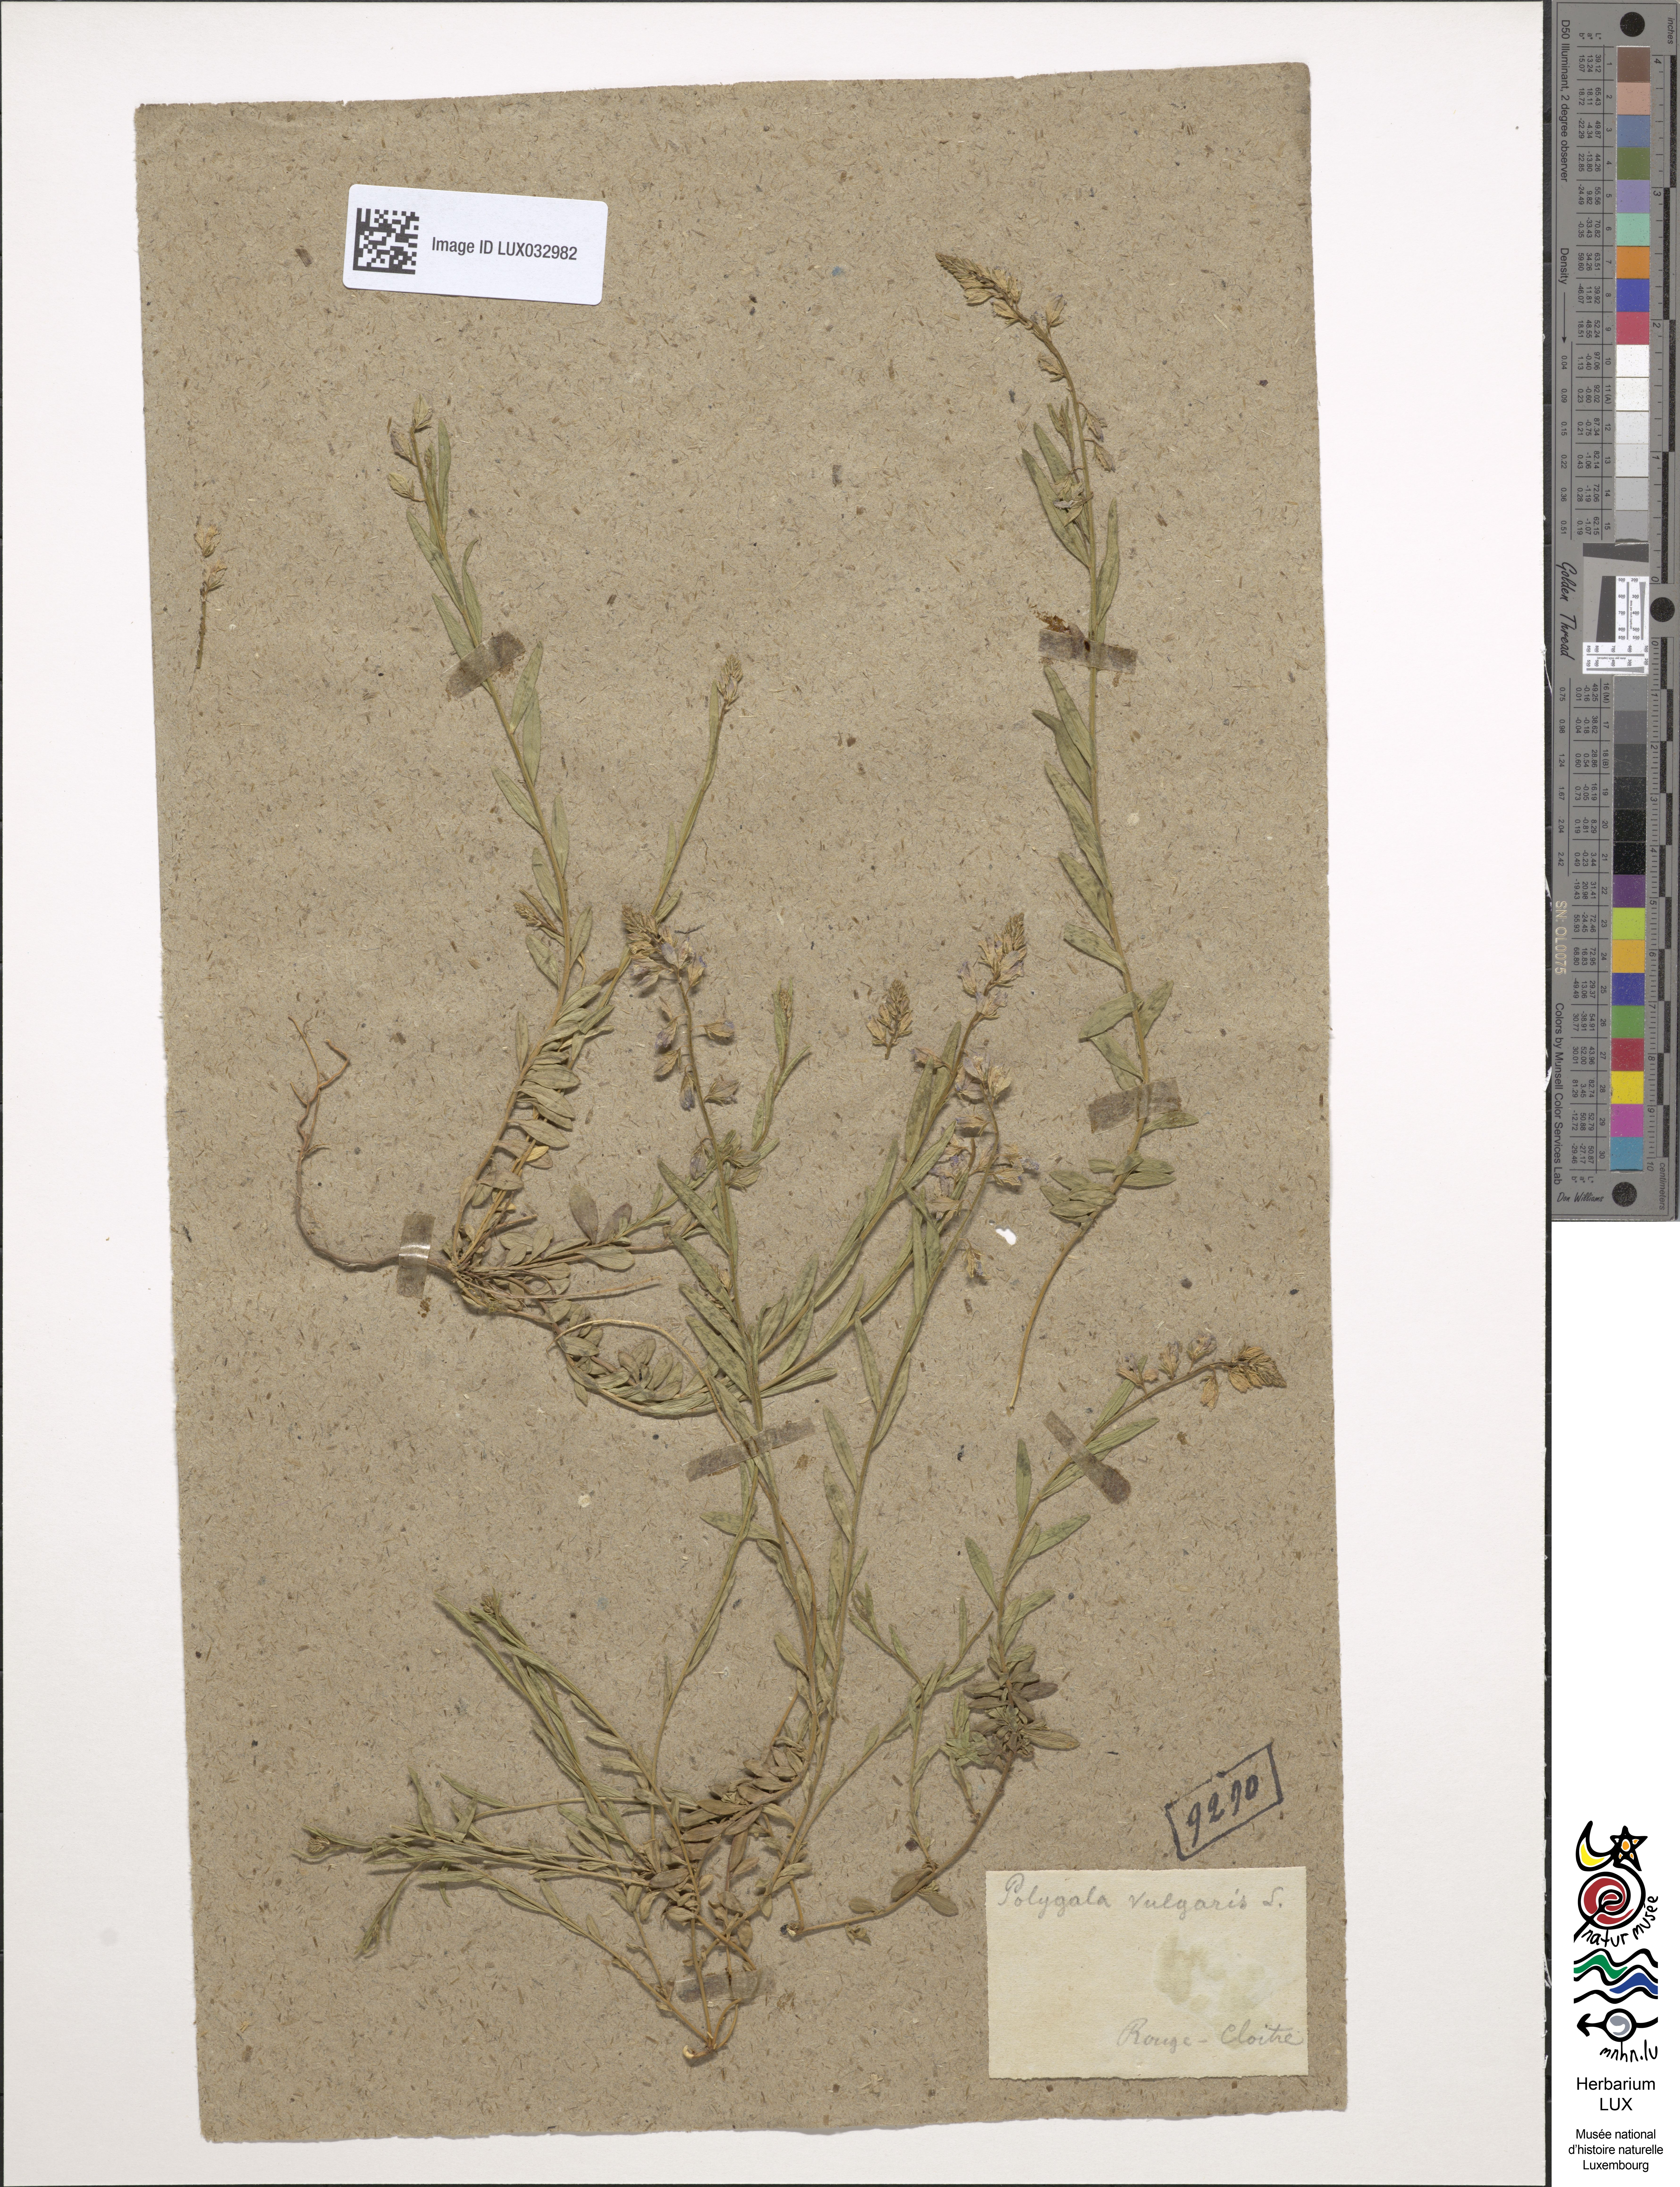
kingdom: Plantae
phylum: Tracheophyta
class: Magnoliopsida
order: Fabales
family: Polygalaceae
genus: Polygala
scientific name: Polygala vulgaris
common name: Common milkwort
